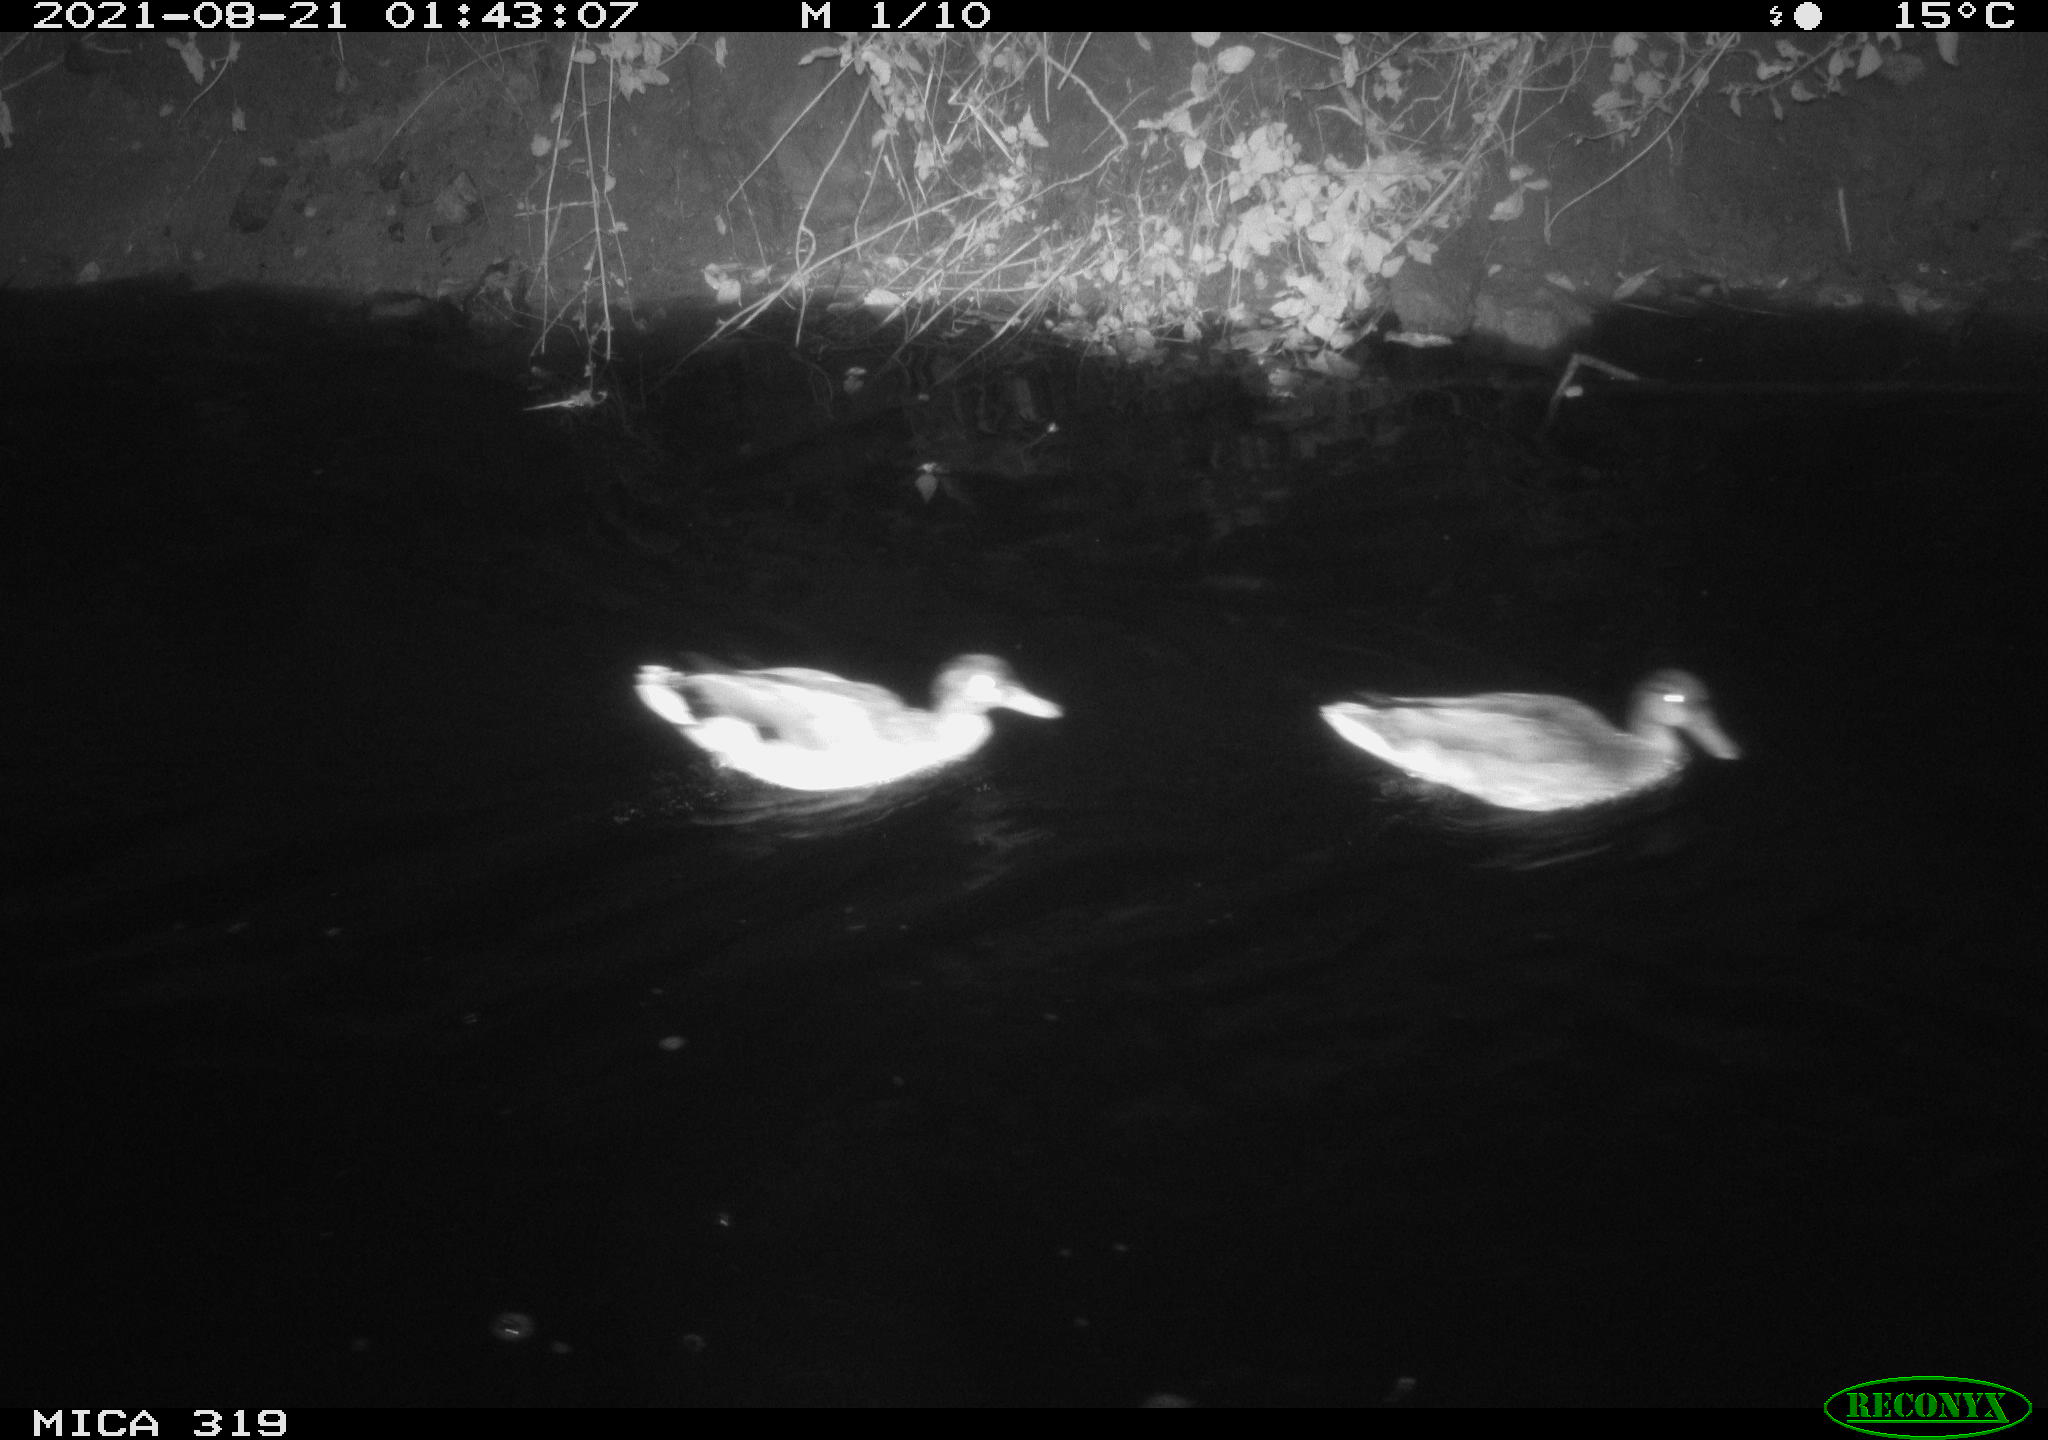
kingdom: Animalia
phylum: Chordata
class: Aves
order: Anseriformes
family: Anatidae
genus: Anas
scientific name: Anas platyrhynchos
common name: Mallard
